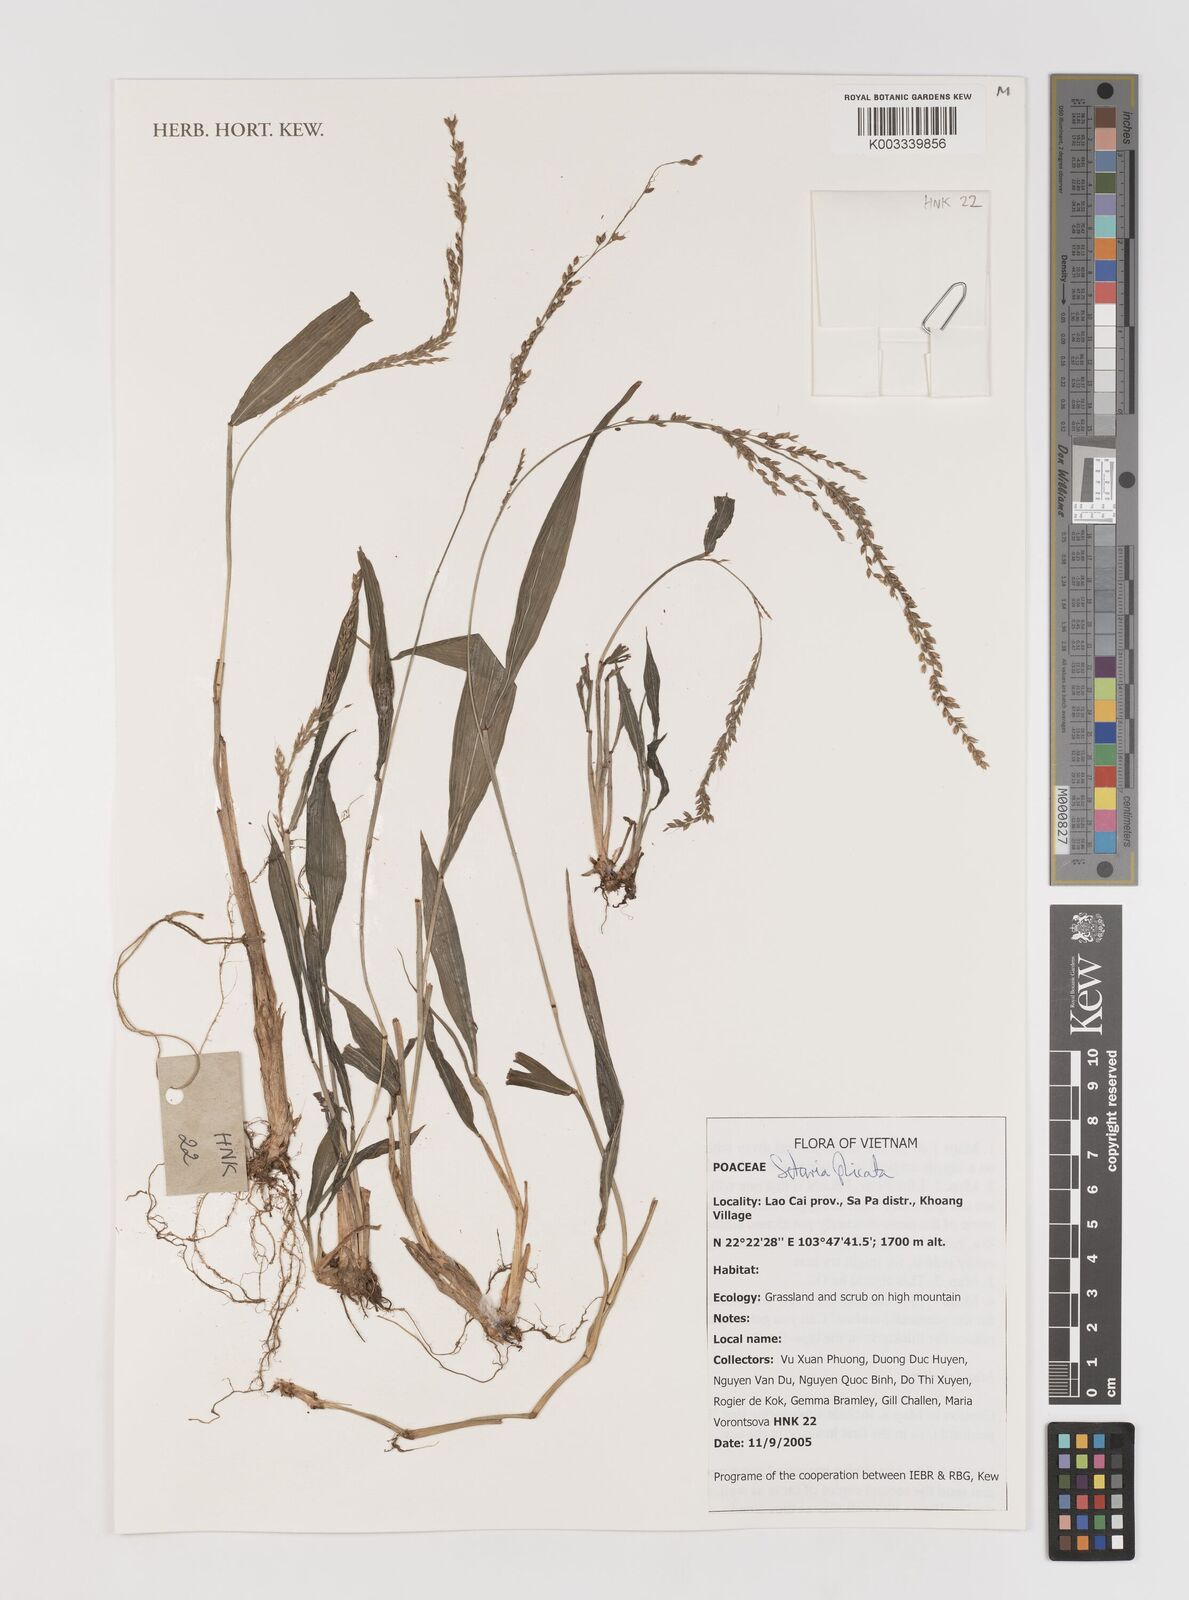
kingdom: Plantae
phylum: Tracheophyta
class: Liliopsida
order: Poales
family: Poaceae
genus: Setaria
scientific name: Setaria plicata
